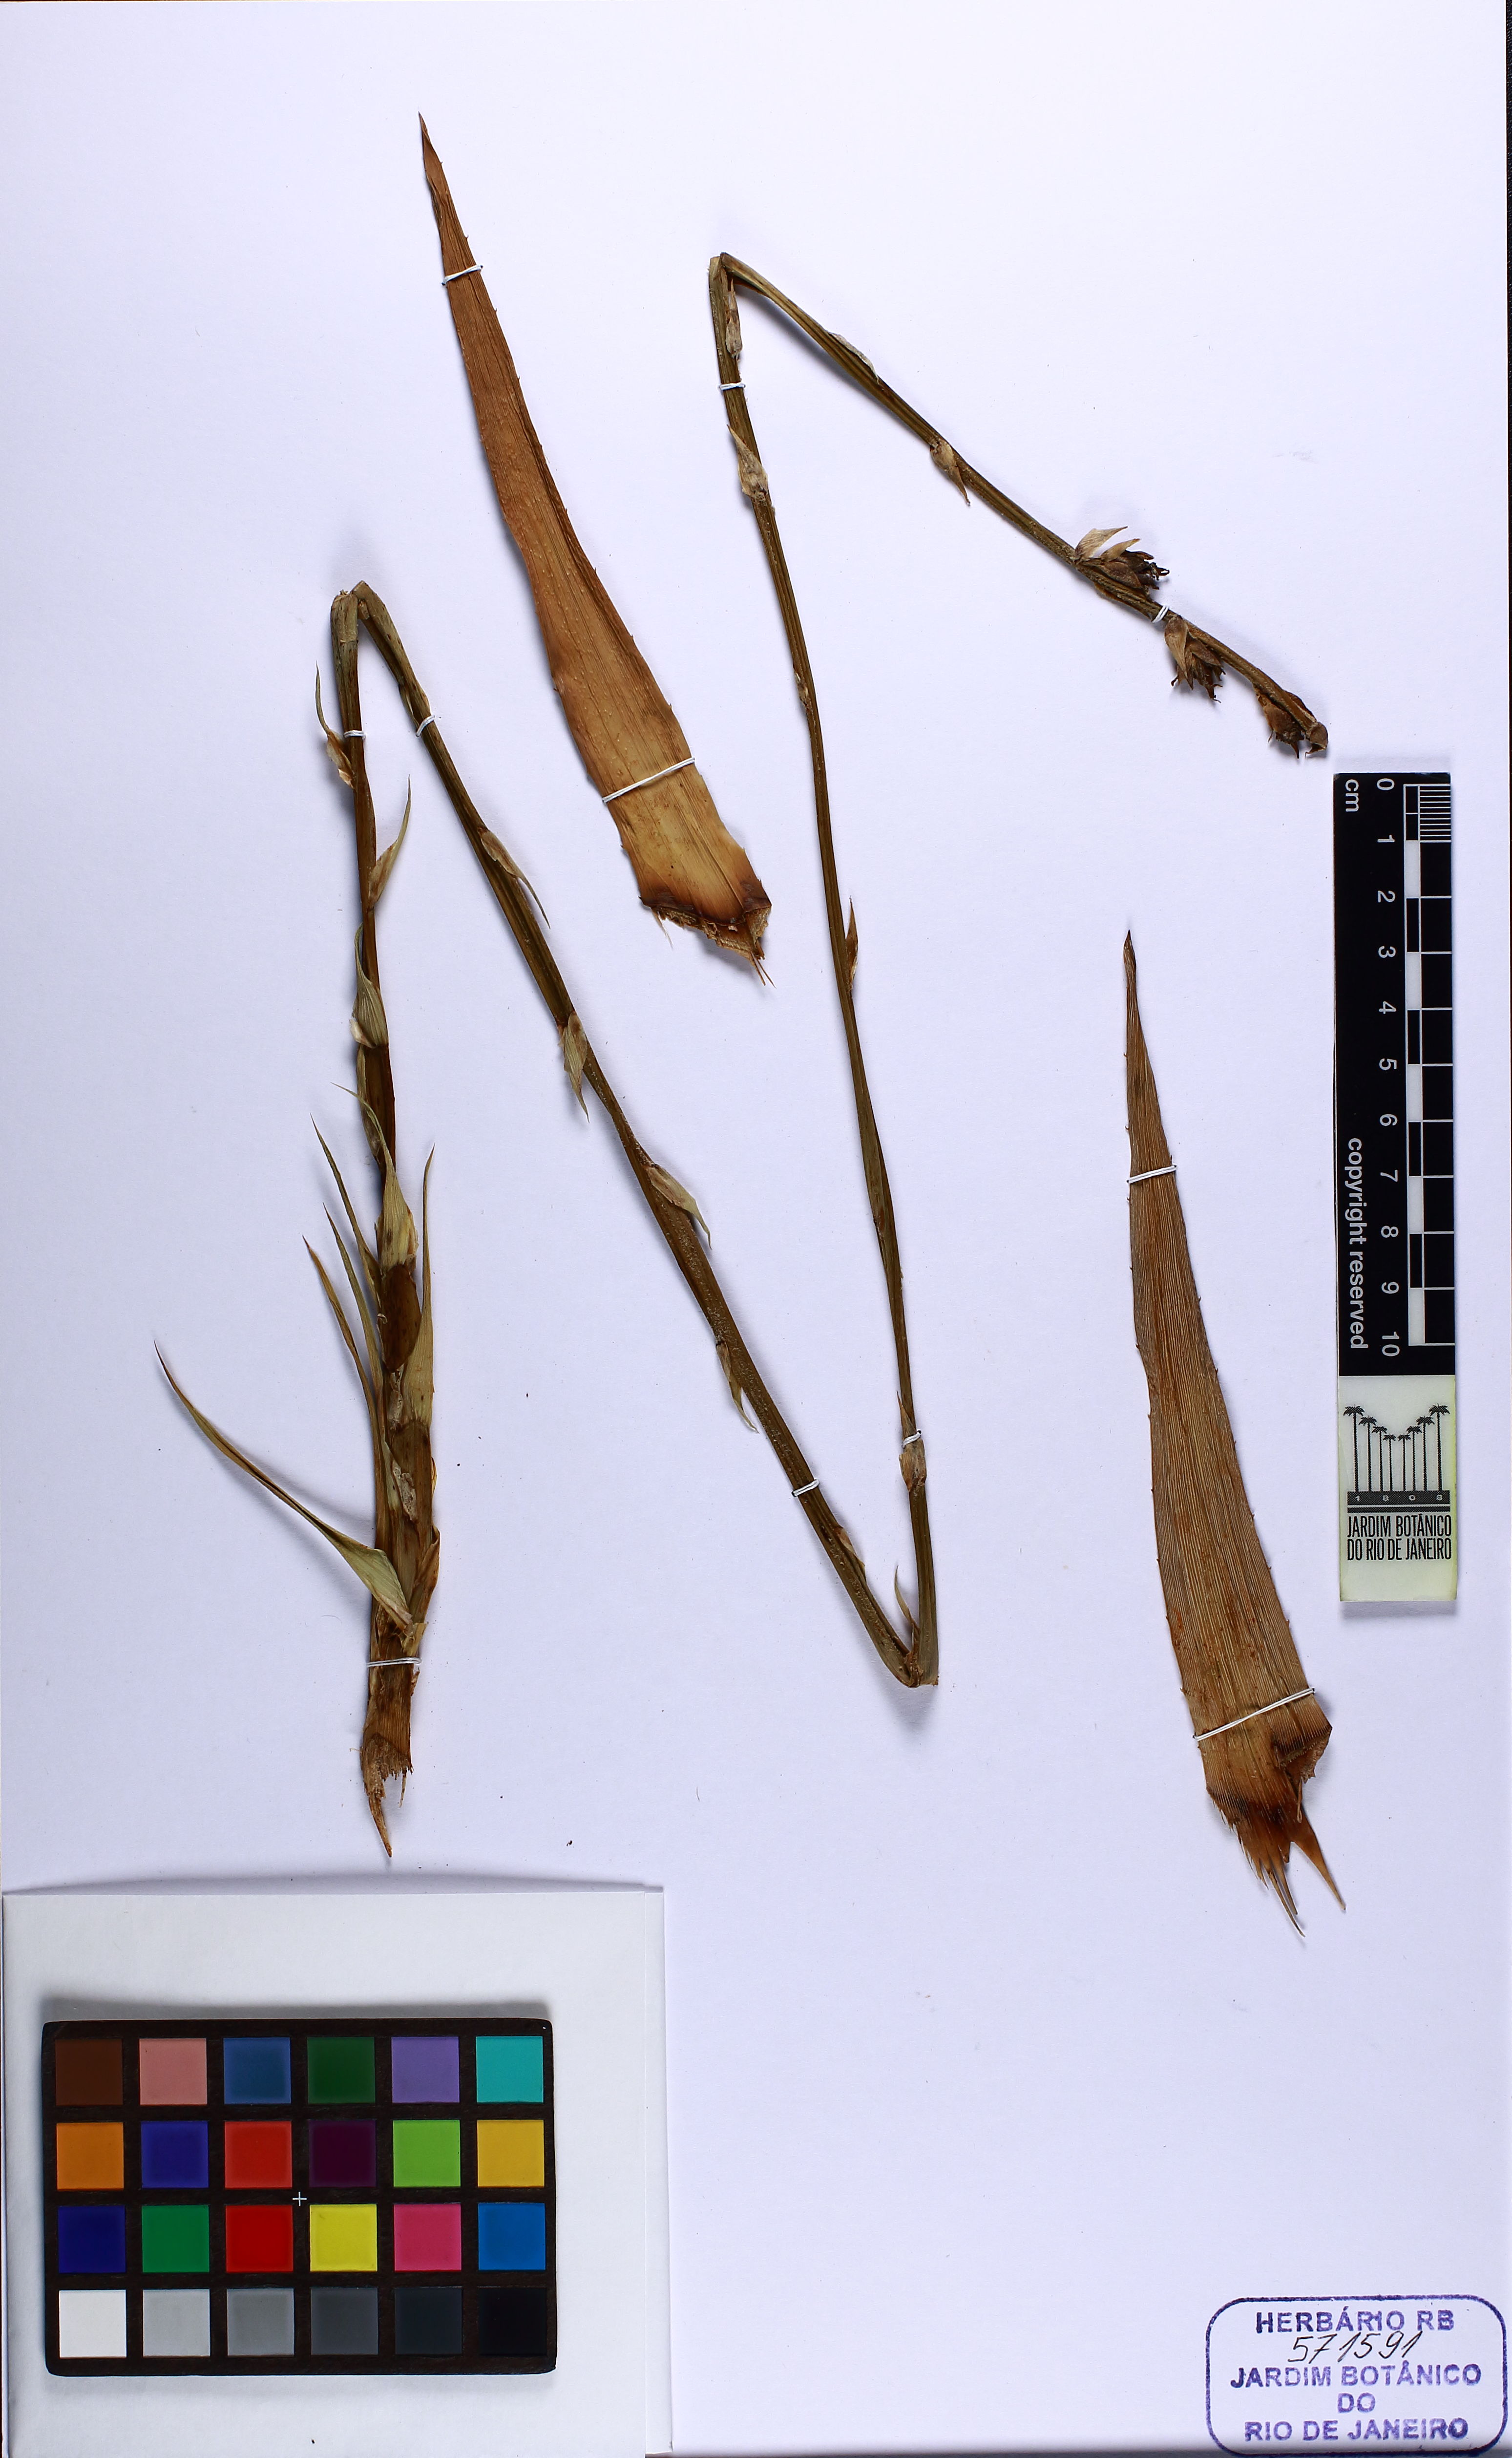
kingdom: Plantae
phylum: Tracheophyta
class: Liliopsida
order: Poales
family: Bromeliaceae
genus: Dyckia
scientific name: Dyckia distachya
